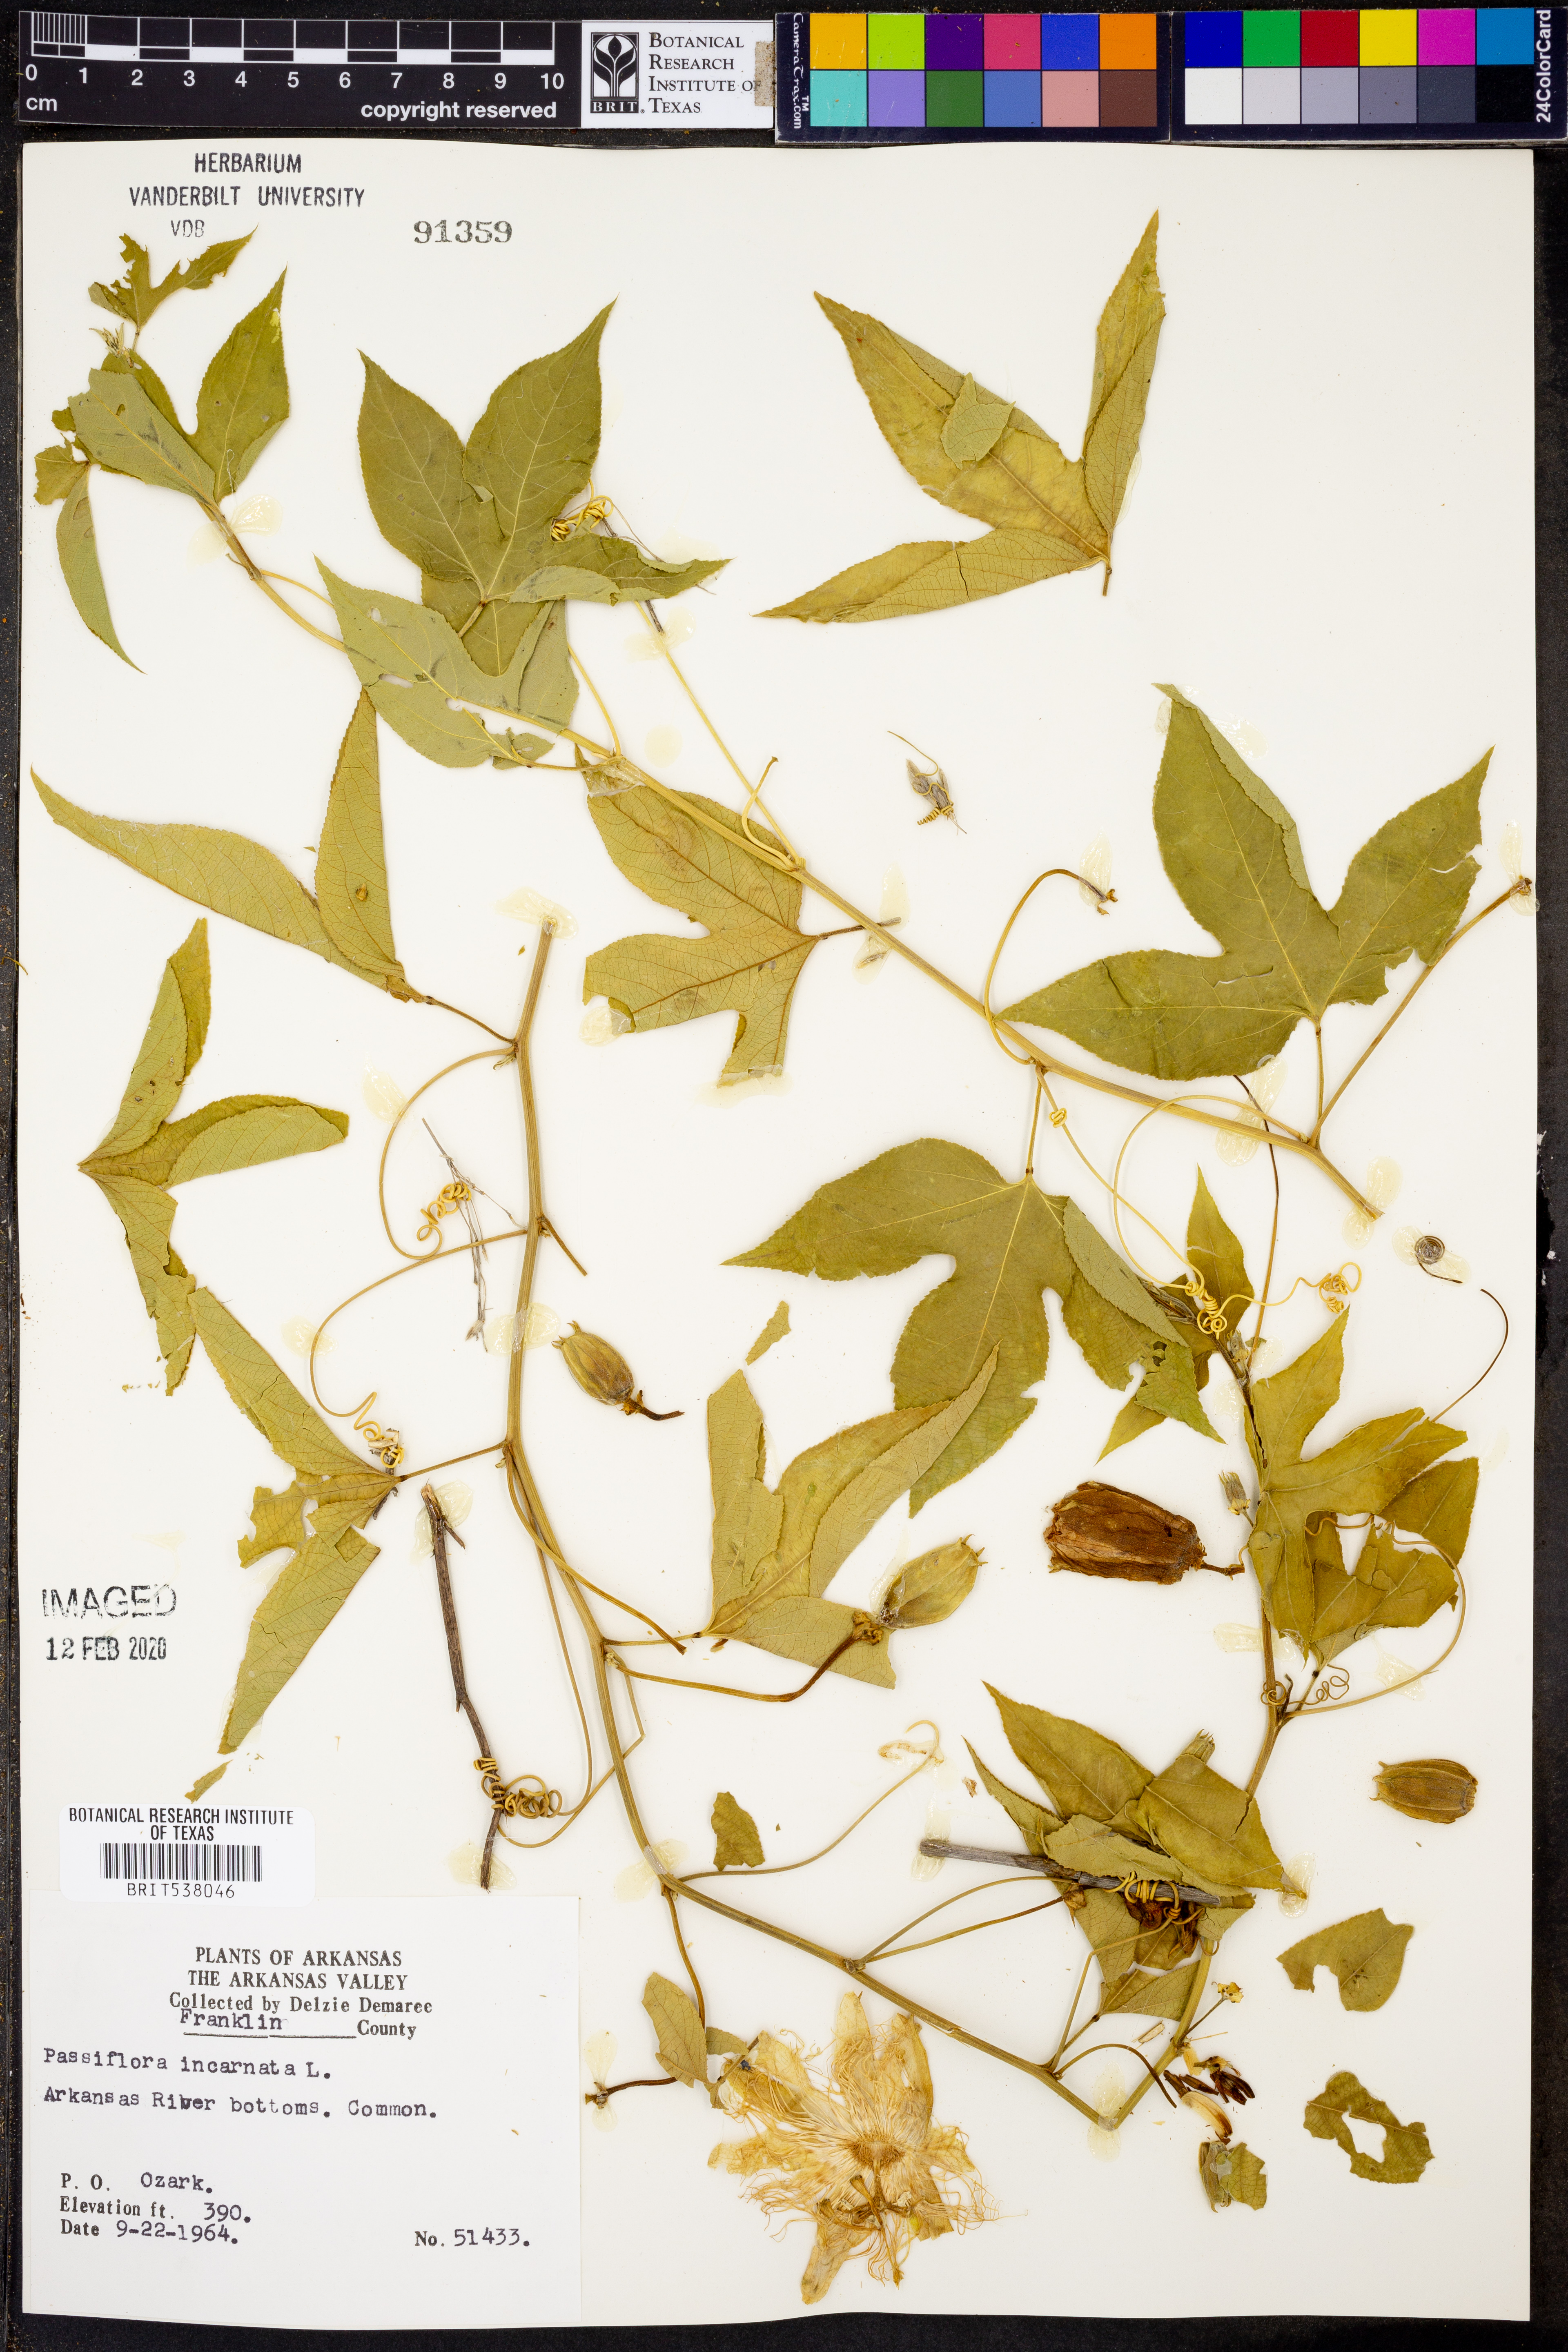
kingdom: Plantae
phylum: Tracheophyta
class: Magnoliopsida
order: Malpighiales
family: Passifloraceae
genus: Passiflora
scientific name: Passiflora incarnata
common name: Apricot-vine
